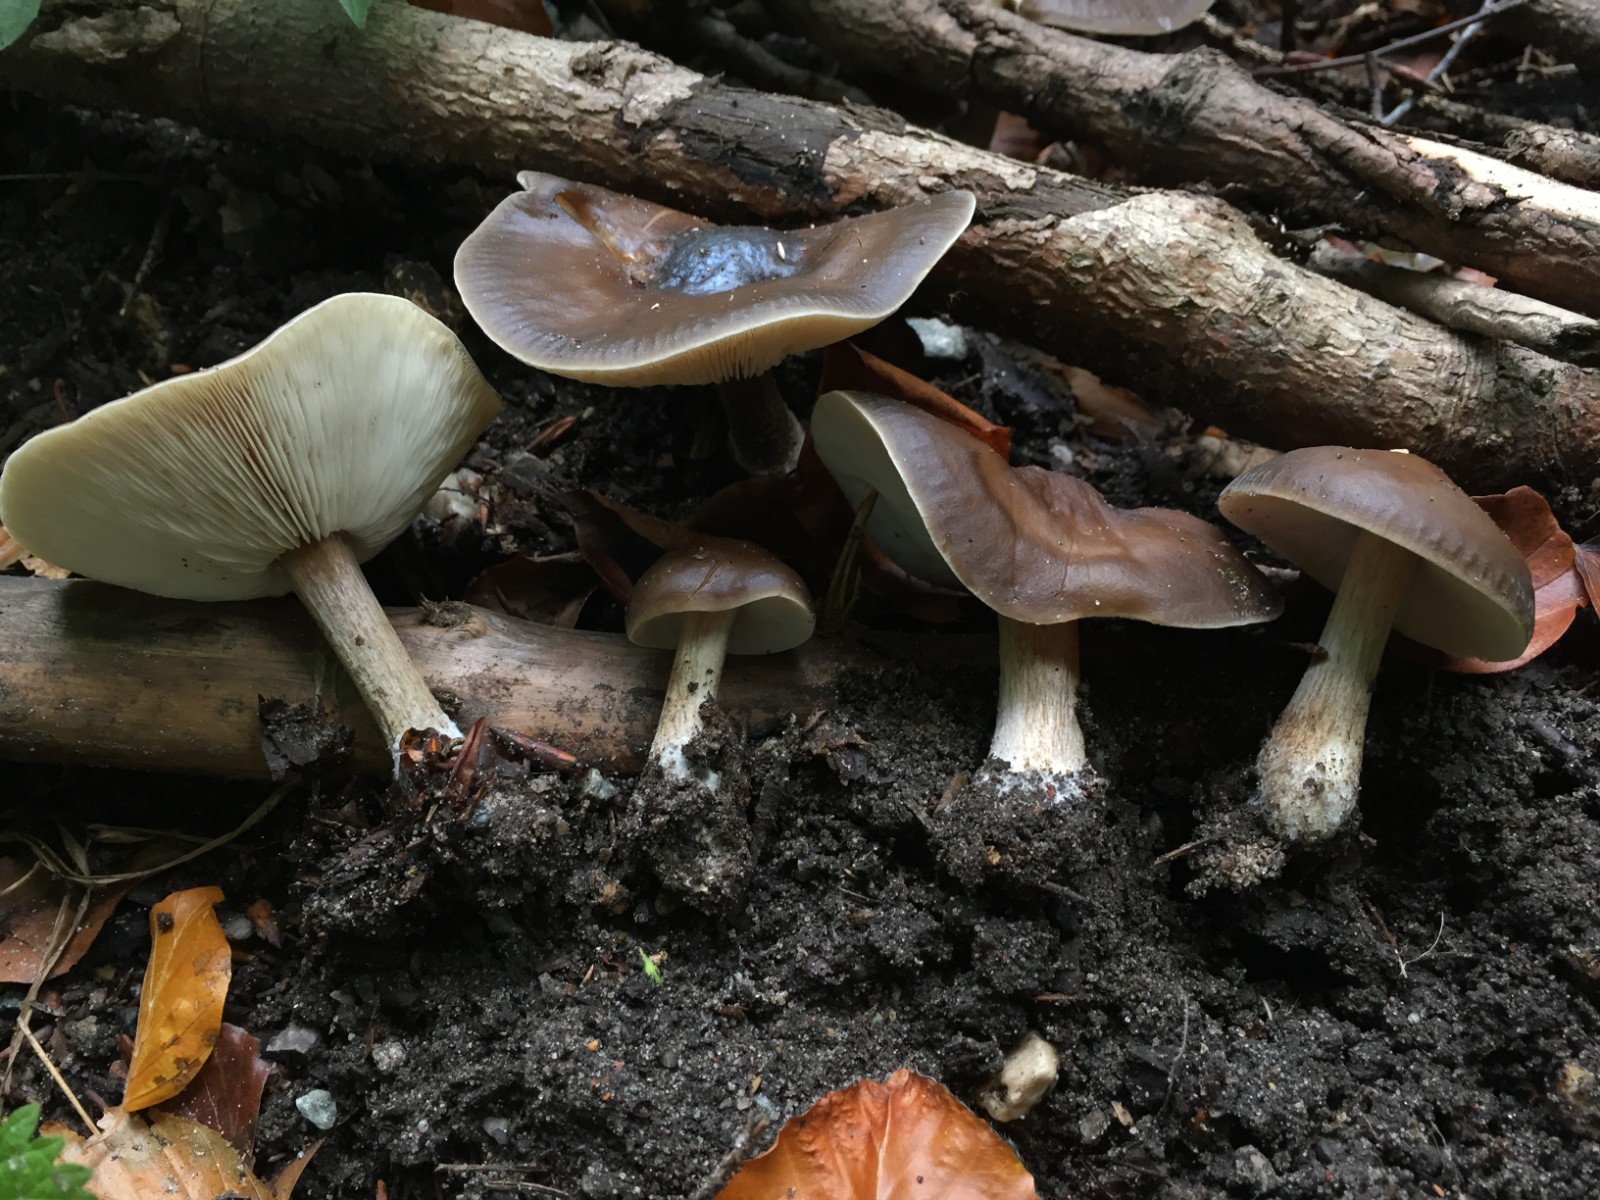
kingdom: Fungi
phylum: Basidiomycota
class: Agaricomycetes
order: Agaricales
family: Tricholomataceae
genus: Melanoleuca
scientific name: Melanoleuca polioleuca
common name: hvidbladet munkehat
